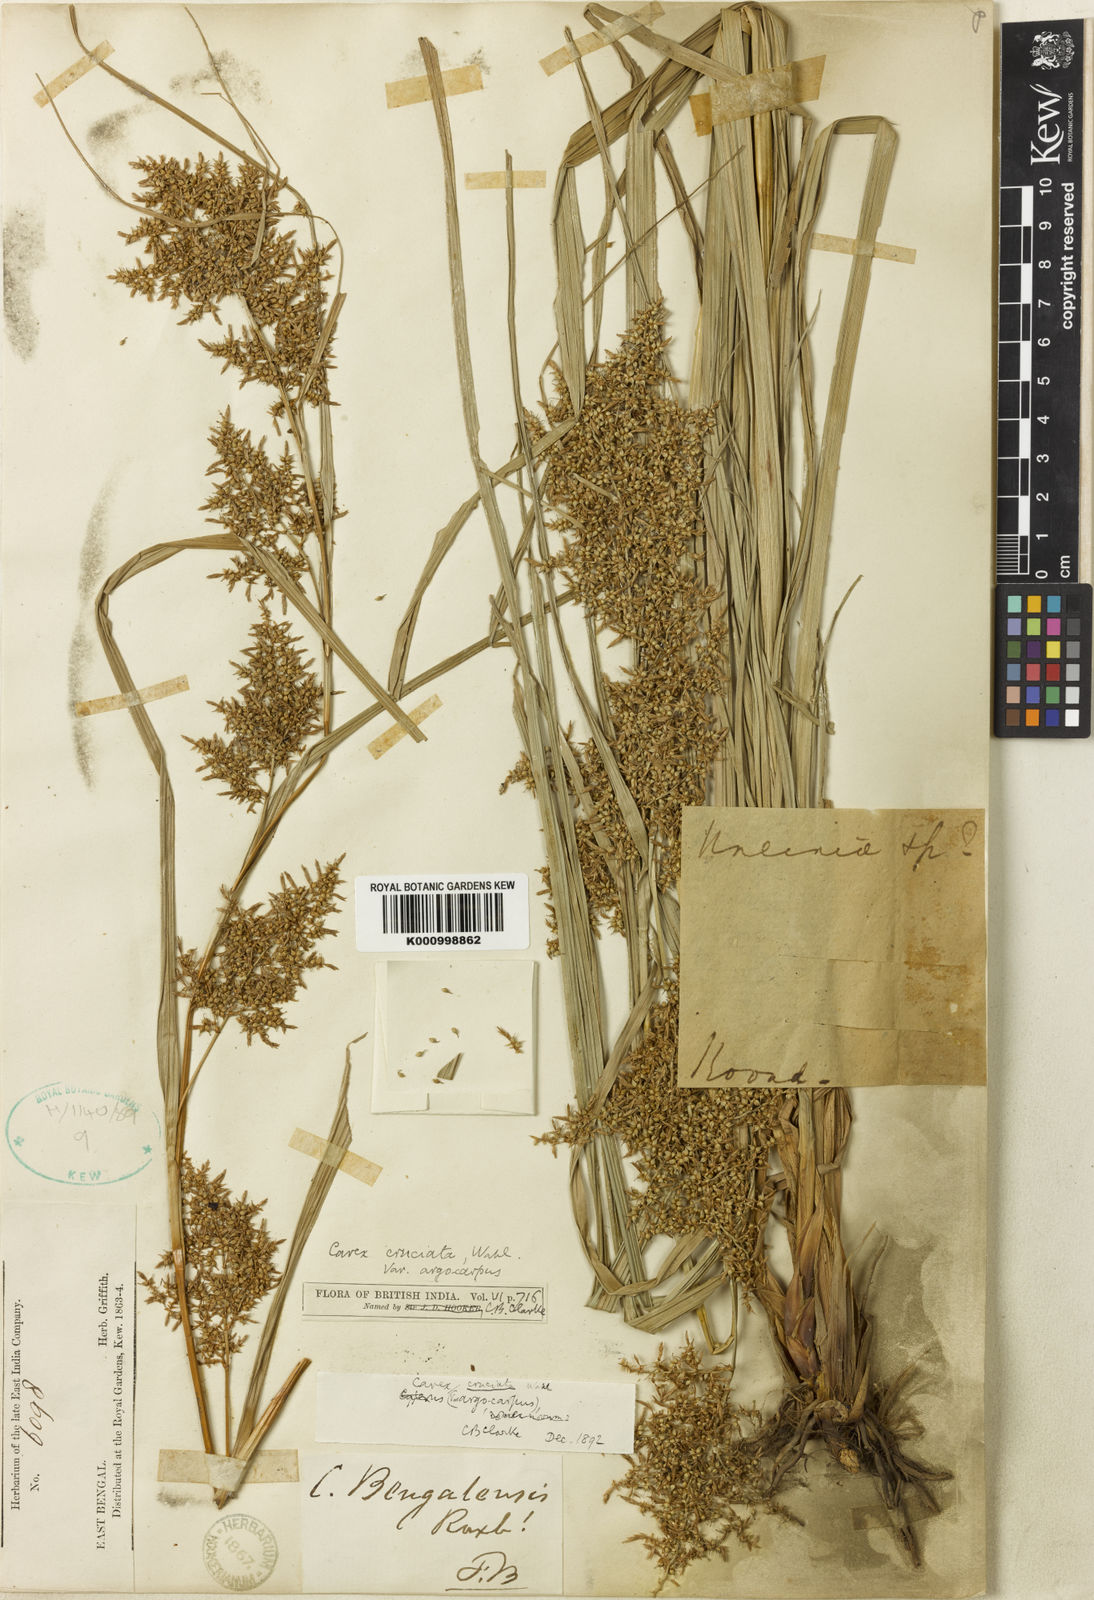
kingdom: Plantae
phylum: Tracheophyta
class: Liliopsida
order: Poales
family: Cyperaceae
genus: Carex
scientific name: Carex cruciata
